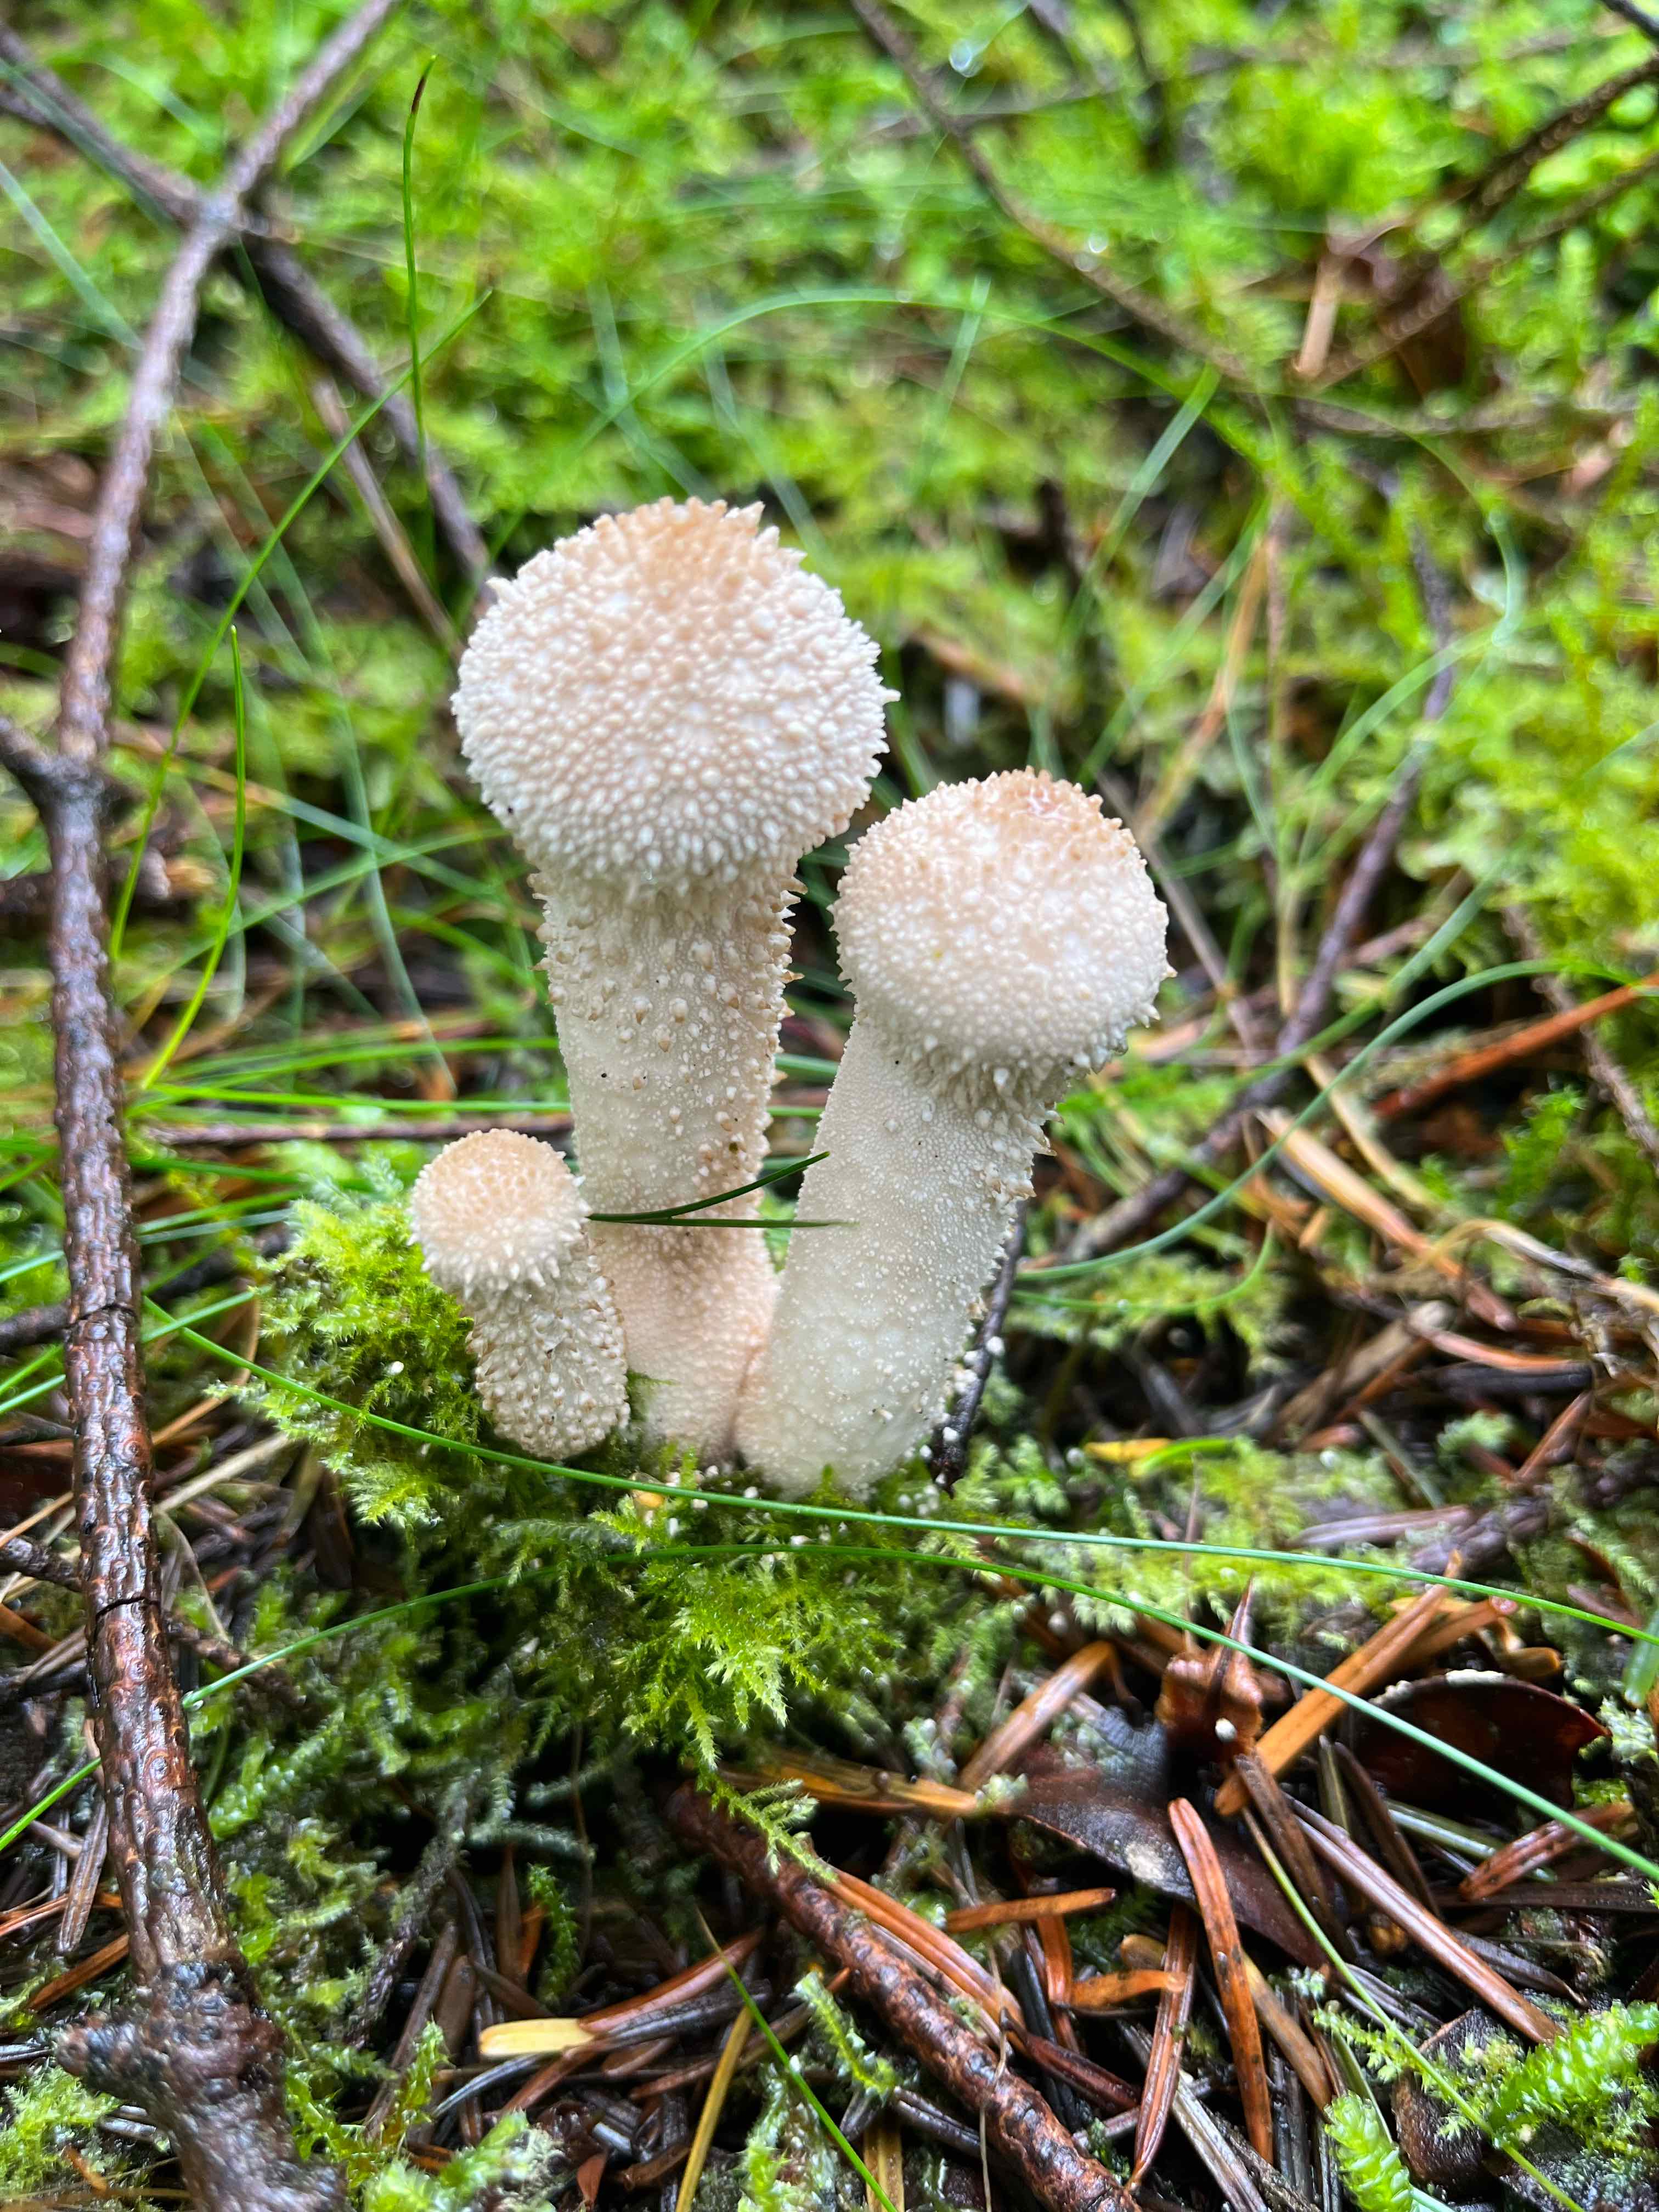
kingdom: Fungi
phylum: Basidiomycota
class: Agaricomycetes
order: Agaricales
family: Lycoperdaceae
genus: Lycoperdon
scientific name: Lycoperdon perlatum
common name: krystal-støvbold
